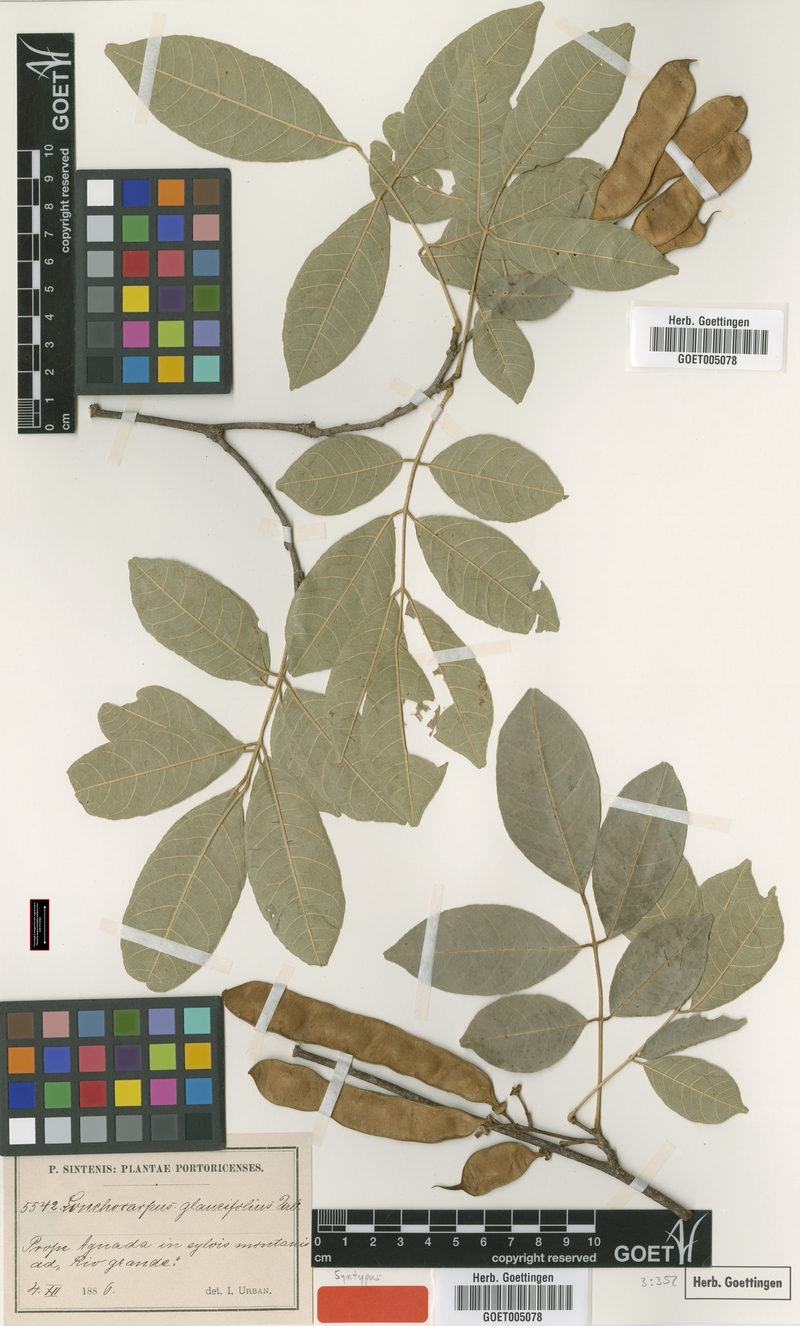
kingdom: Plantae
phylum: Tracheophyta
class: Magnoliopsida
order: Fabales
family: Fabaceae
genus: Lonchocarpus
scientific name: Lonchocarpus glaucifolius
